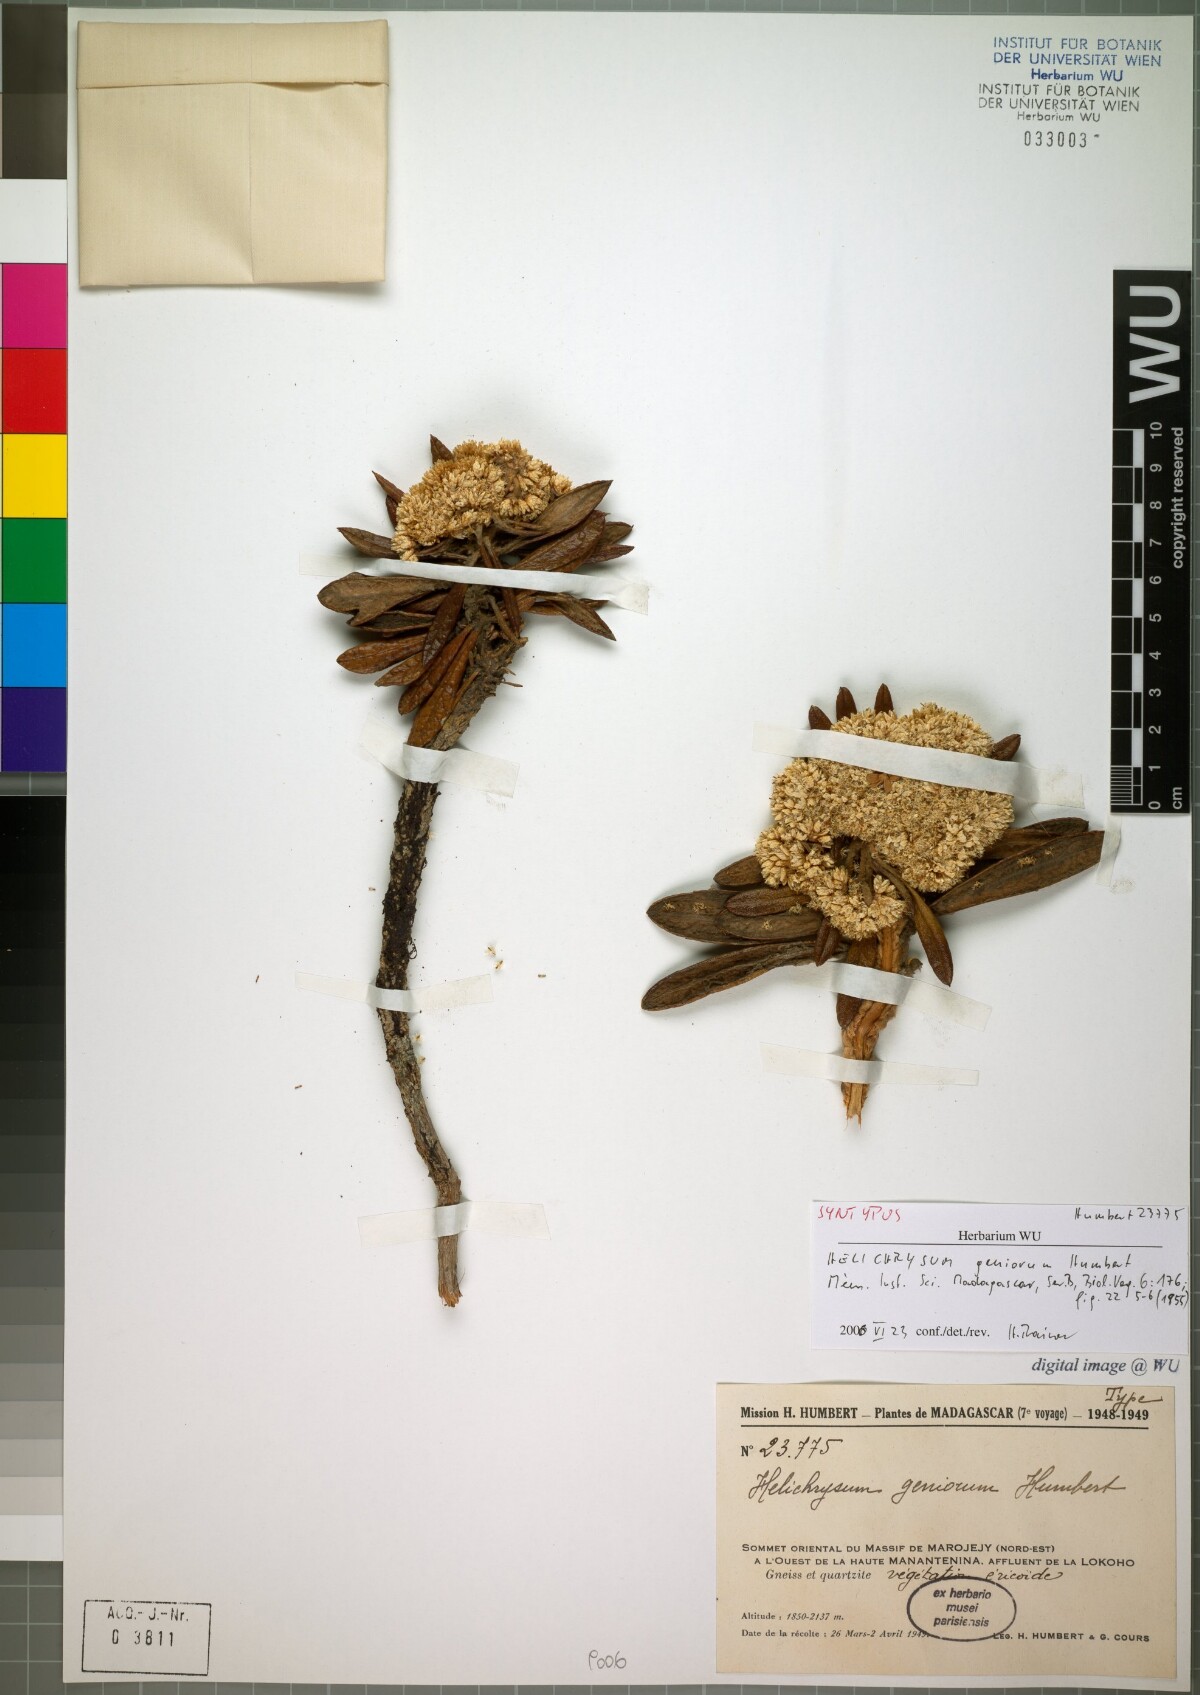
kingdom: Plantae
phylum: Tracheophyta
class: Magnoliopsida
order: Asterales
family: Asteraceae
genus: Helichrysum
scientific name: Helichrysum geniorum
